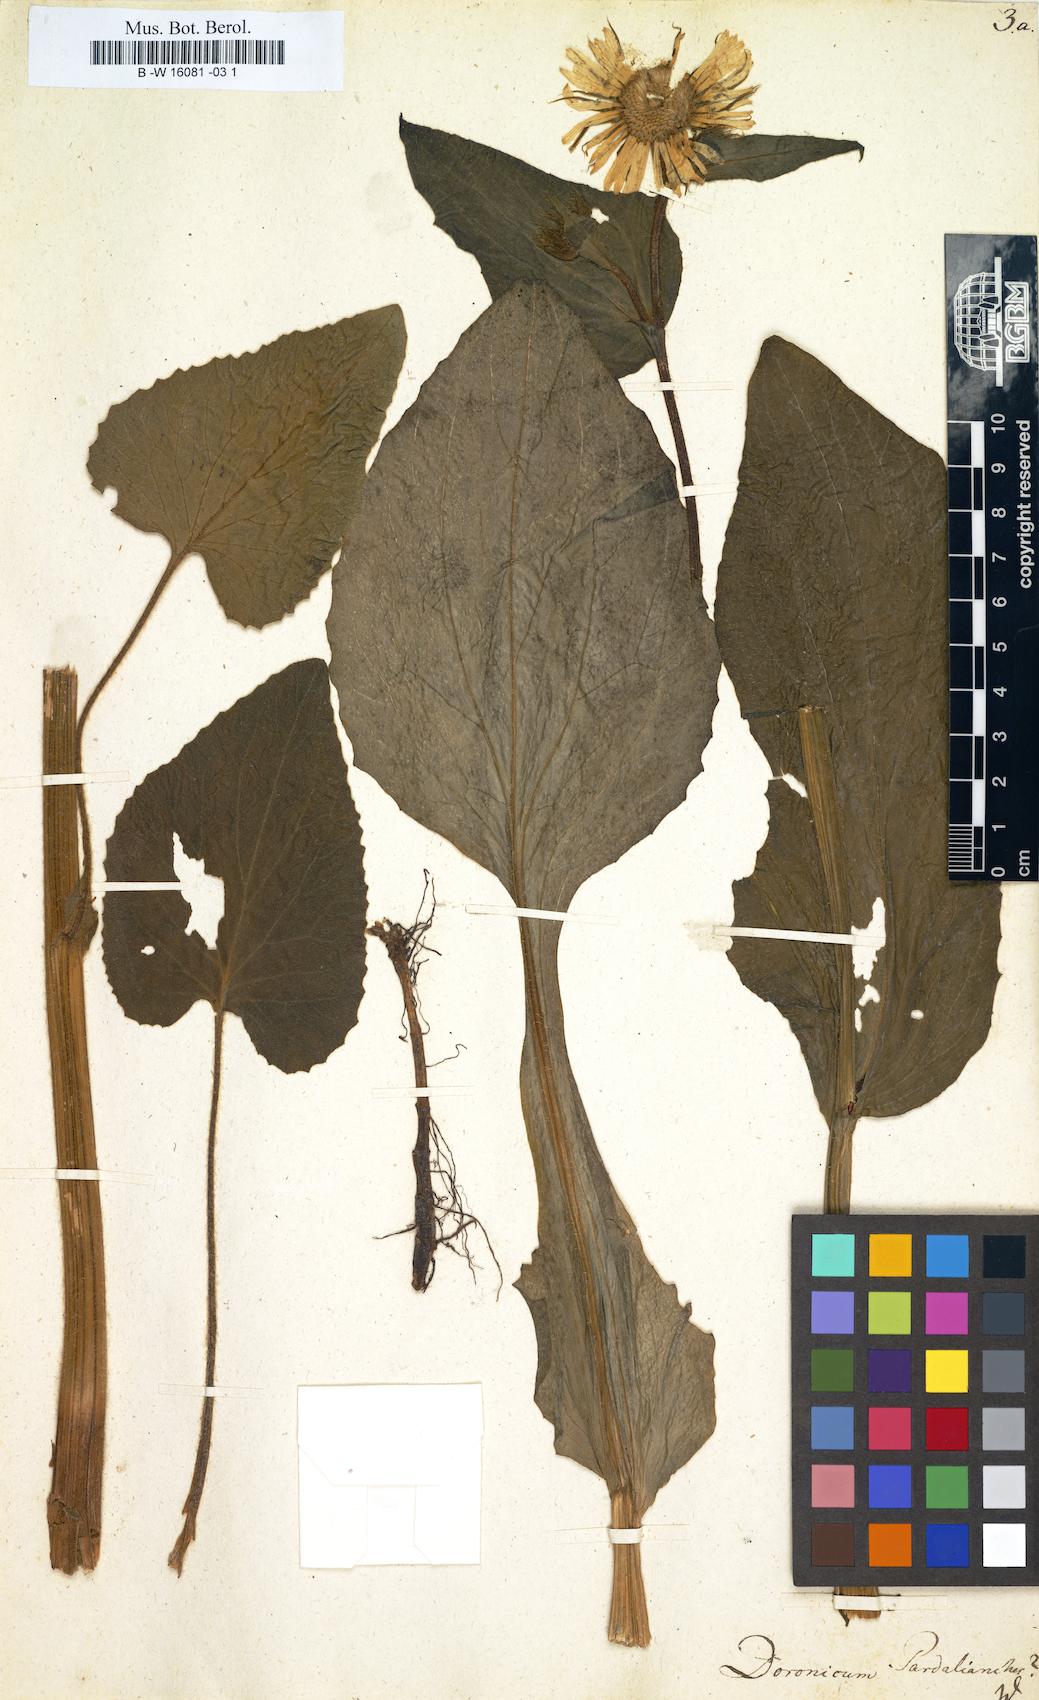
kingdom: Plantae
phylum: Tracheophyta
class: Magnoliopsida
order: Asterales
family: Asteraceae
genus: Doronicum
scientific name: Doronicum pardalianches
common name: Leopard's-bane
